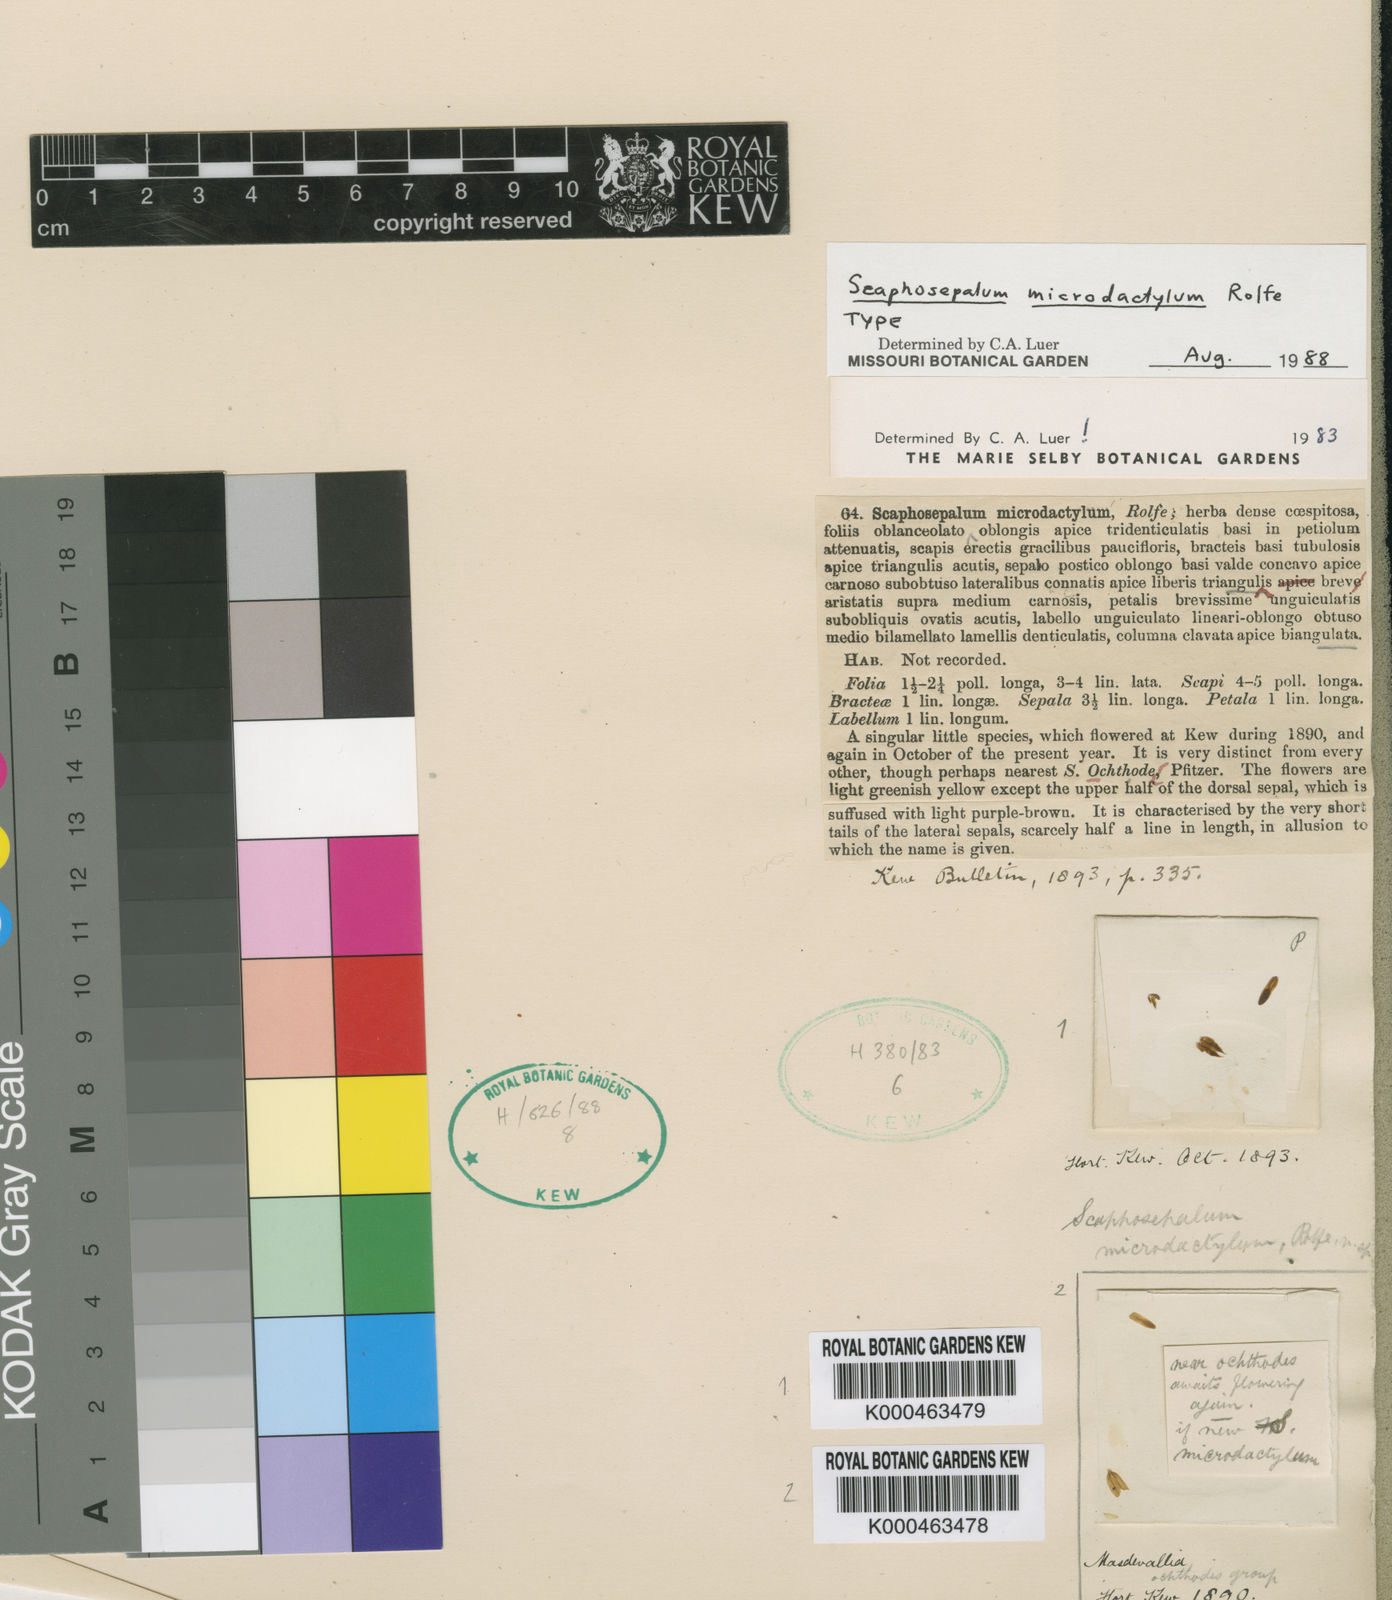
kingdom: Plantae
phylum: Tracheophyta
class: Liliopsida
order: Asparagales
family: Orchidaceae
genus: Scaphosepalum
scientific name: Scaphosepalum microdactylum
